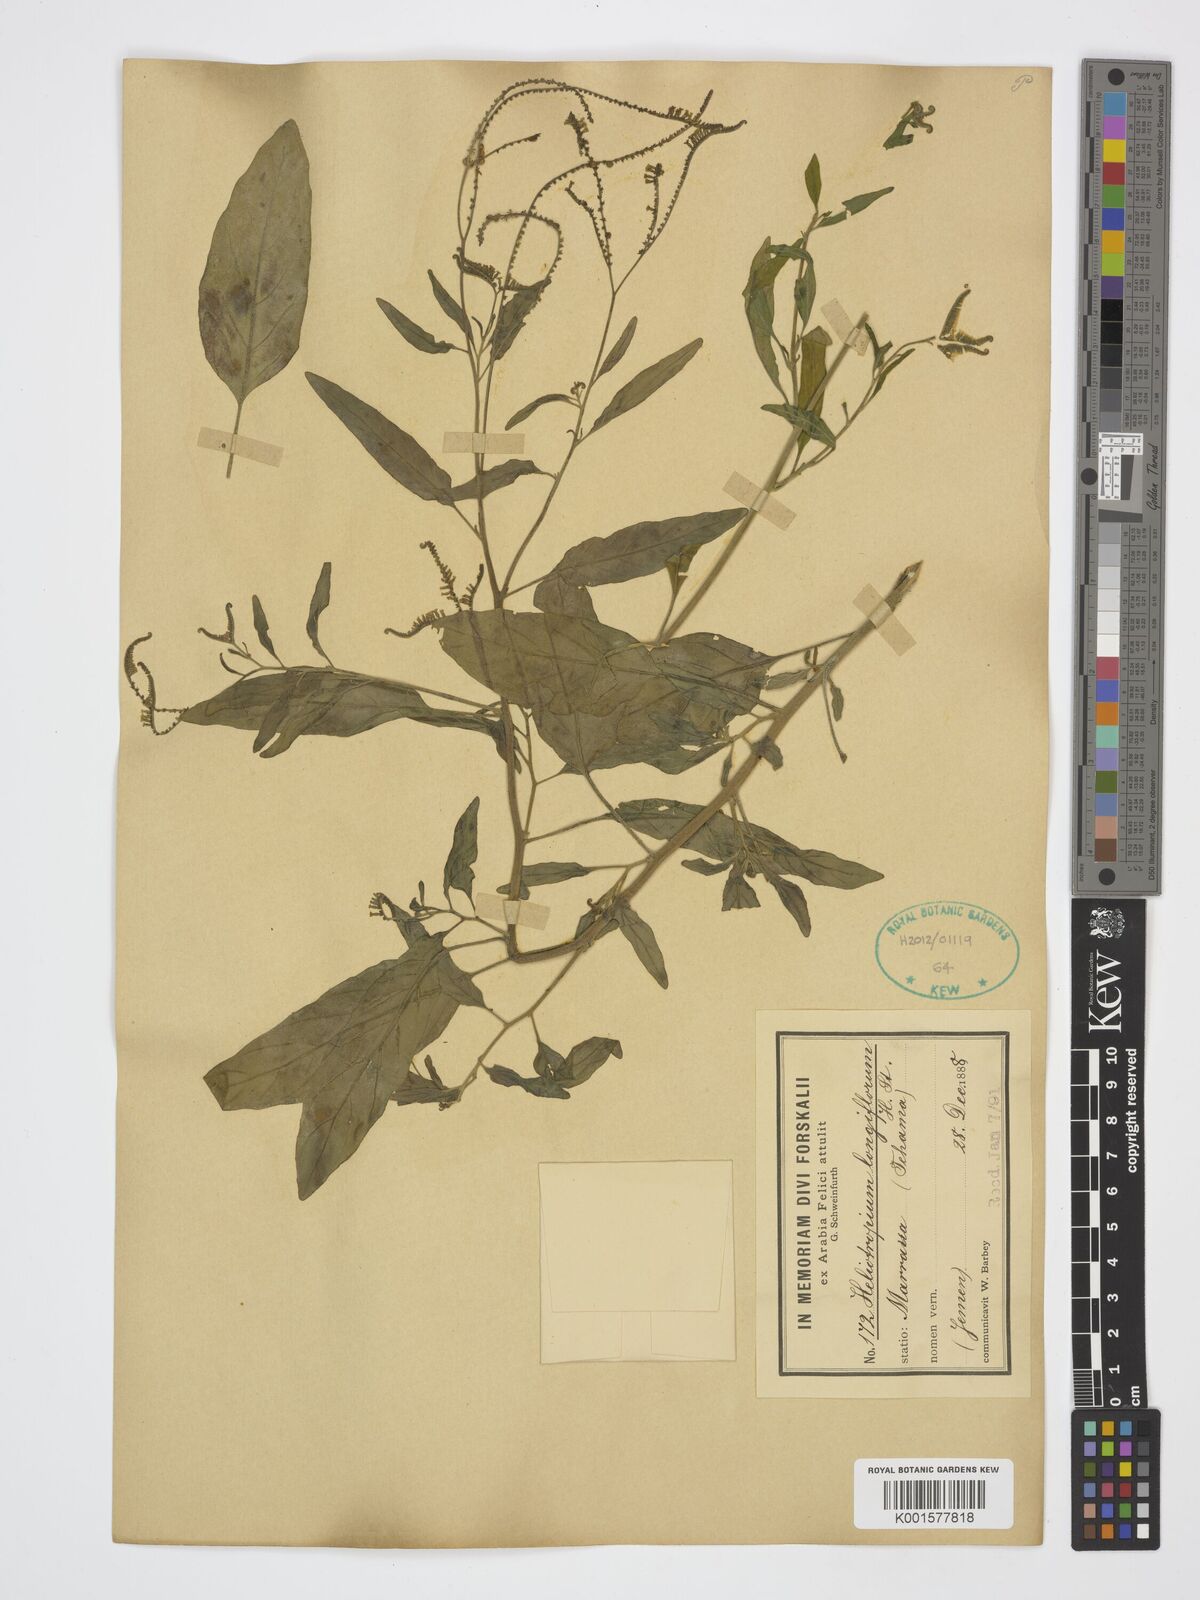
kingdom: Plantae
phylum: Tracheophyta
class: Magnoliopsida
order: Boraginales
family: Heliotropiaceae
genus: Heliotropium
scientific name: Heliotropium longiflorum
